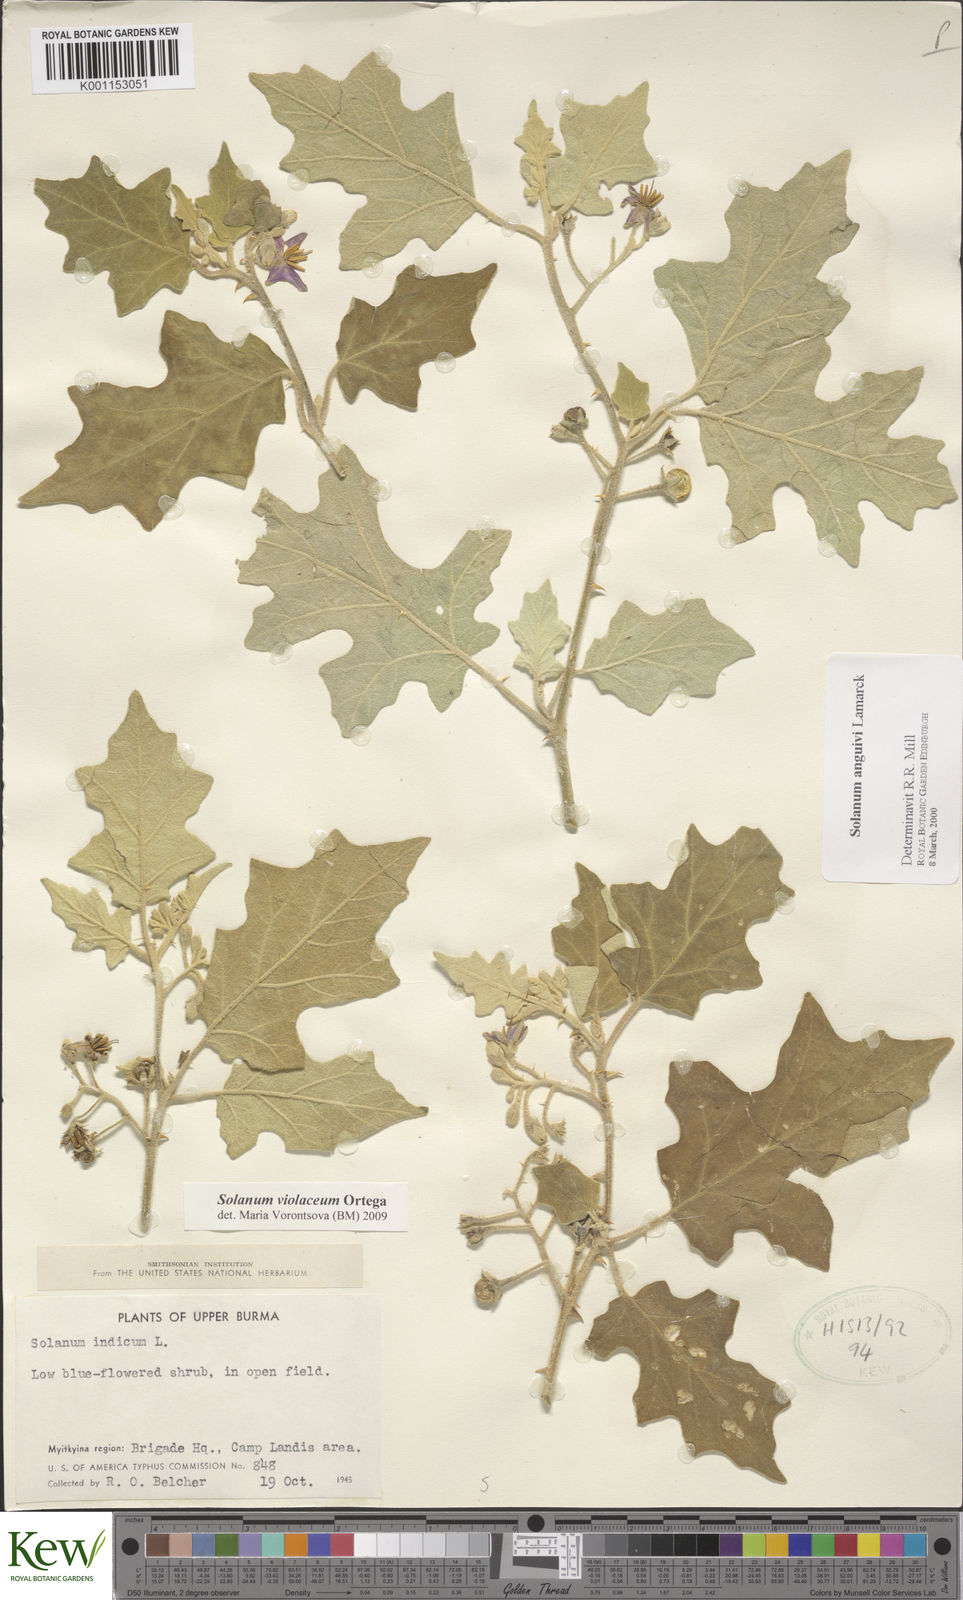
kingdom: Plantae
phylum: Tracheophyta
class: Magnoliopsida
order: Solanales
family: Solanaceae
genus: Solanum
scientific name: Solanum violaceum
